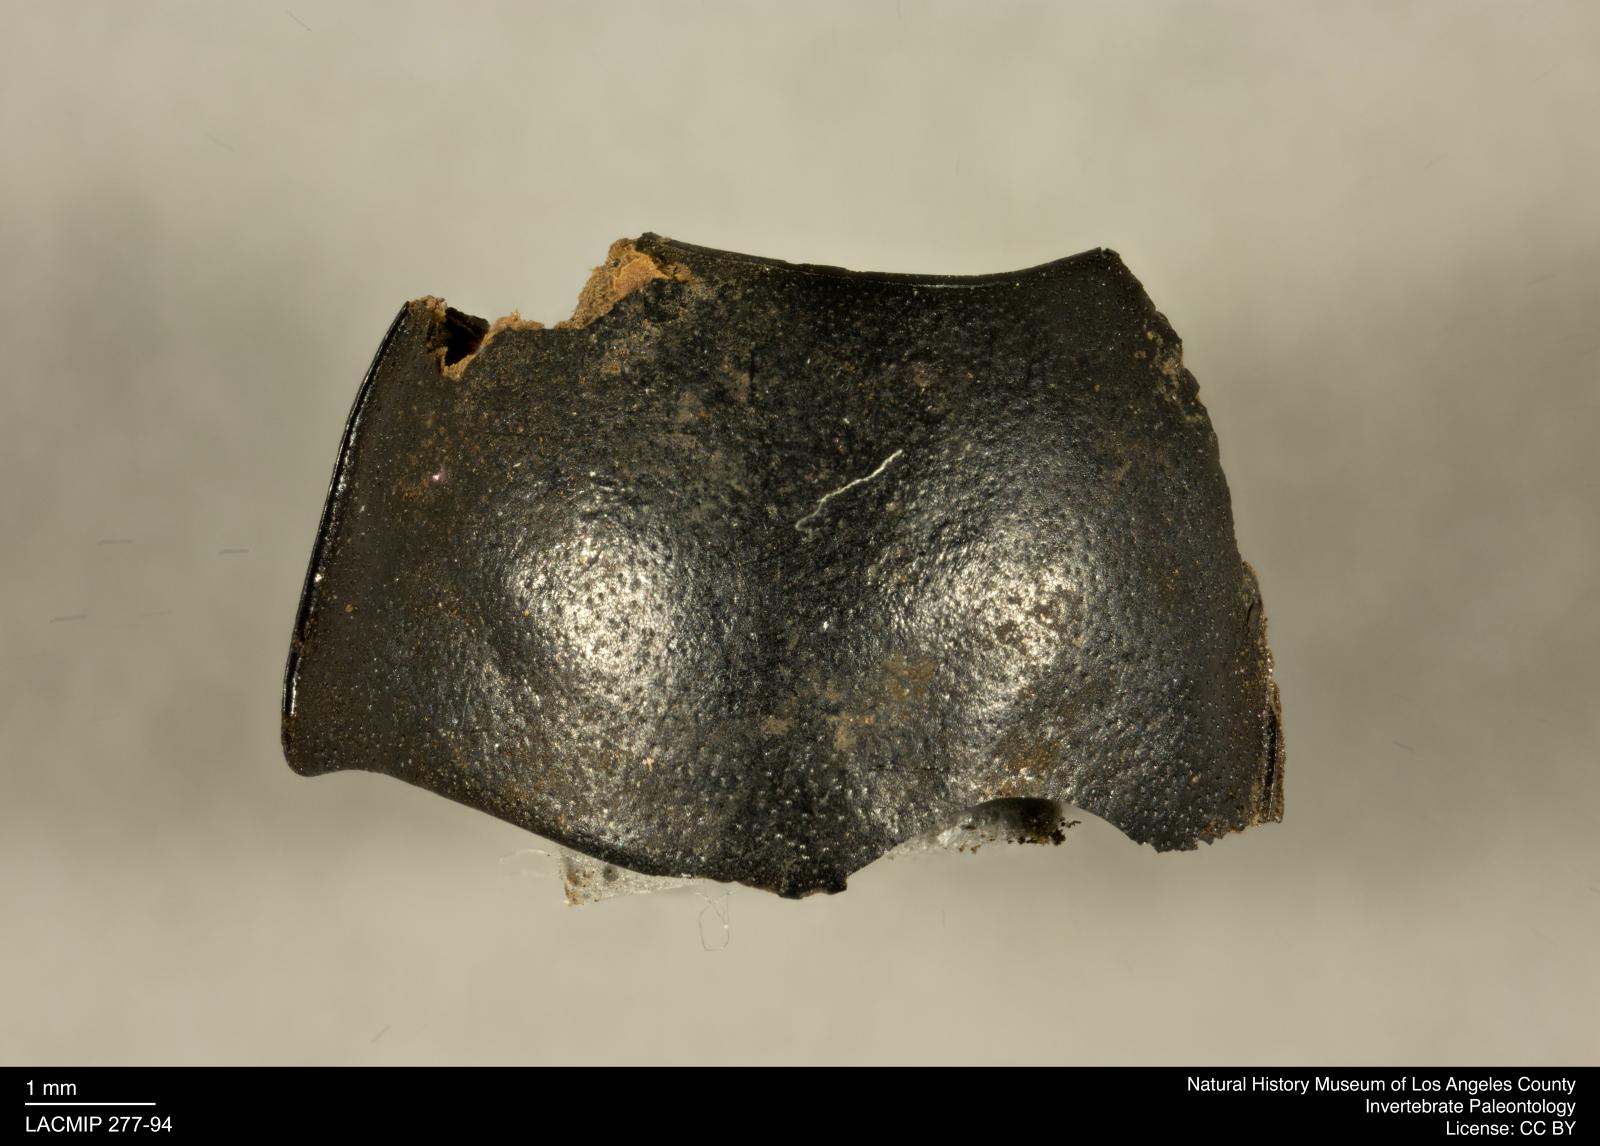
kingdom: Animalia
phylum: Arthropoda
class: Insecta
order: Coleoptera
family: Tenebrionidae
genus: Coniontis
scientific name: Coniontis abdominalis
